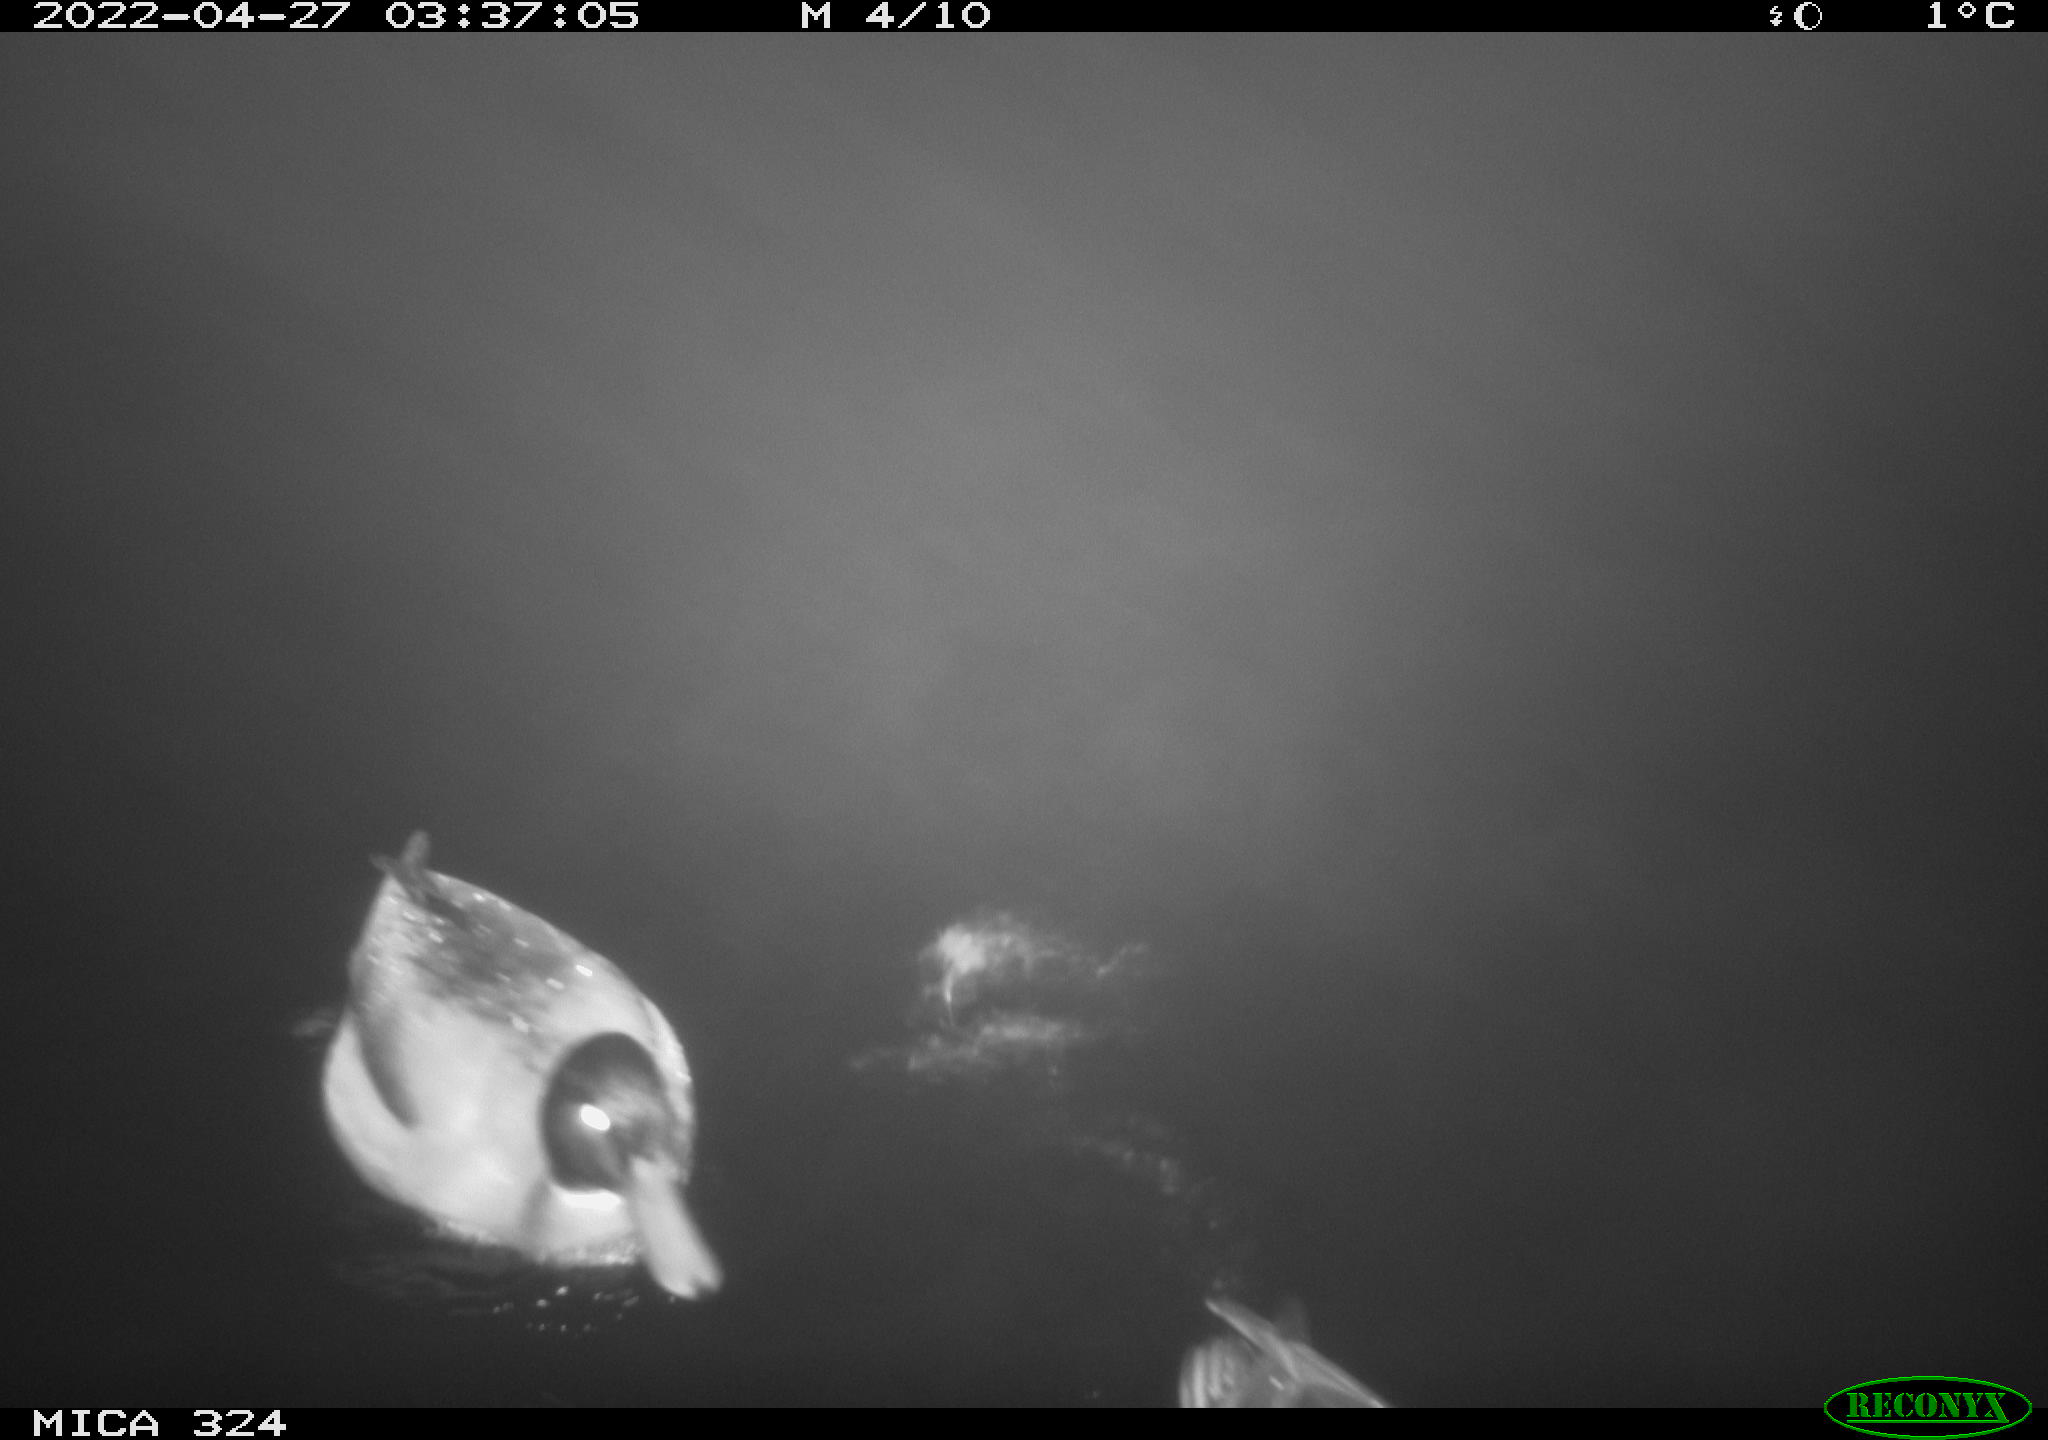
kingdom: Animalia
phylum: Chordata
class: Aves
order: Anseriformes
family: Anatidae
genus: Anas
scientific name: Anas platyrhynchos
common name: Mallard
